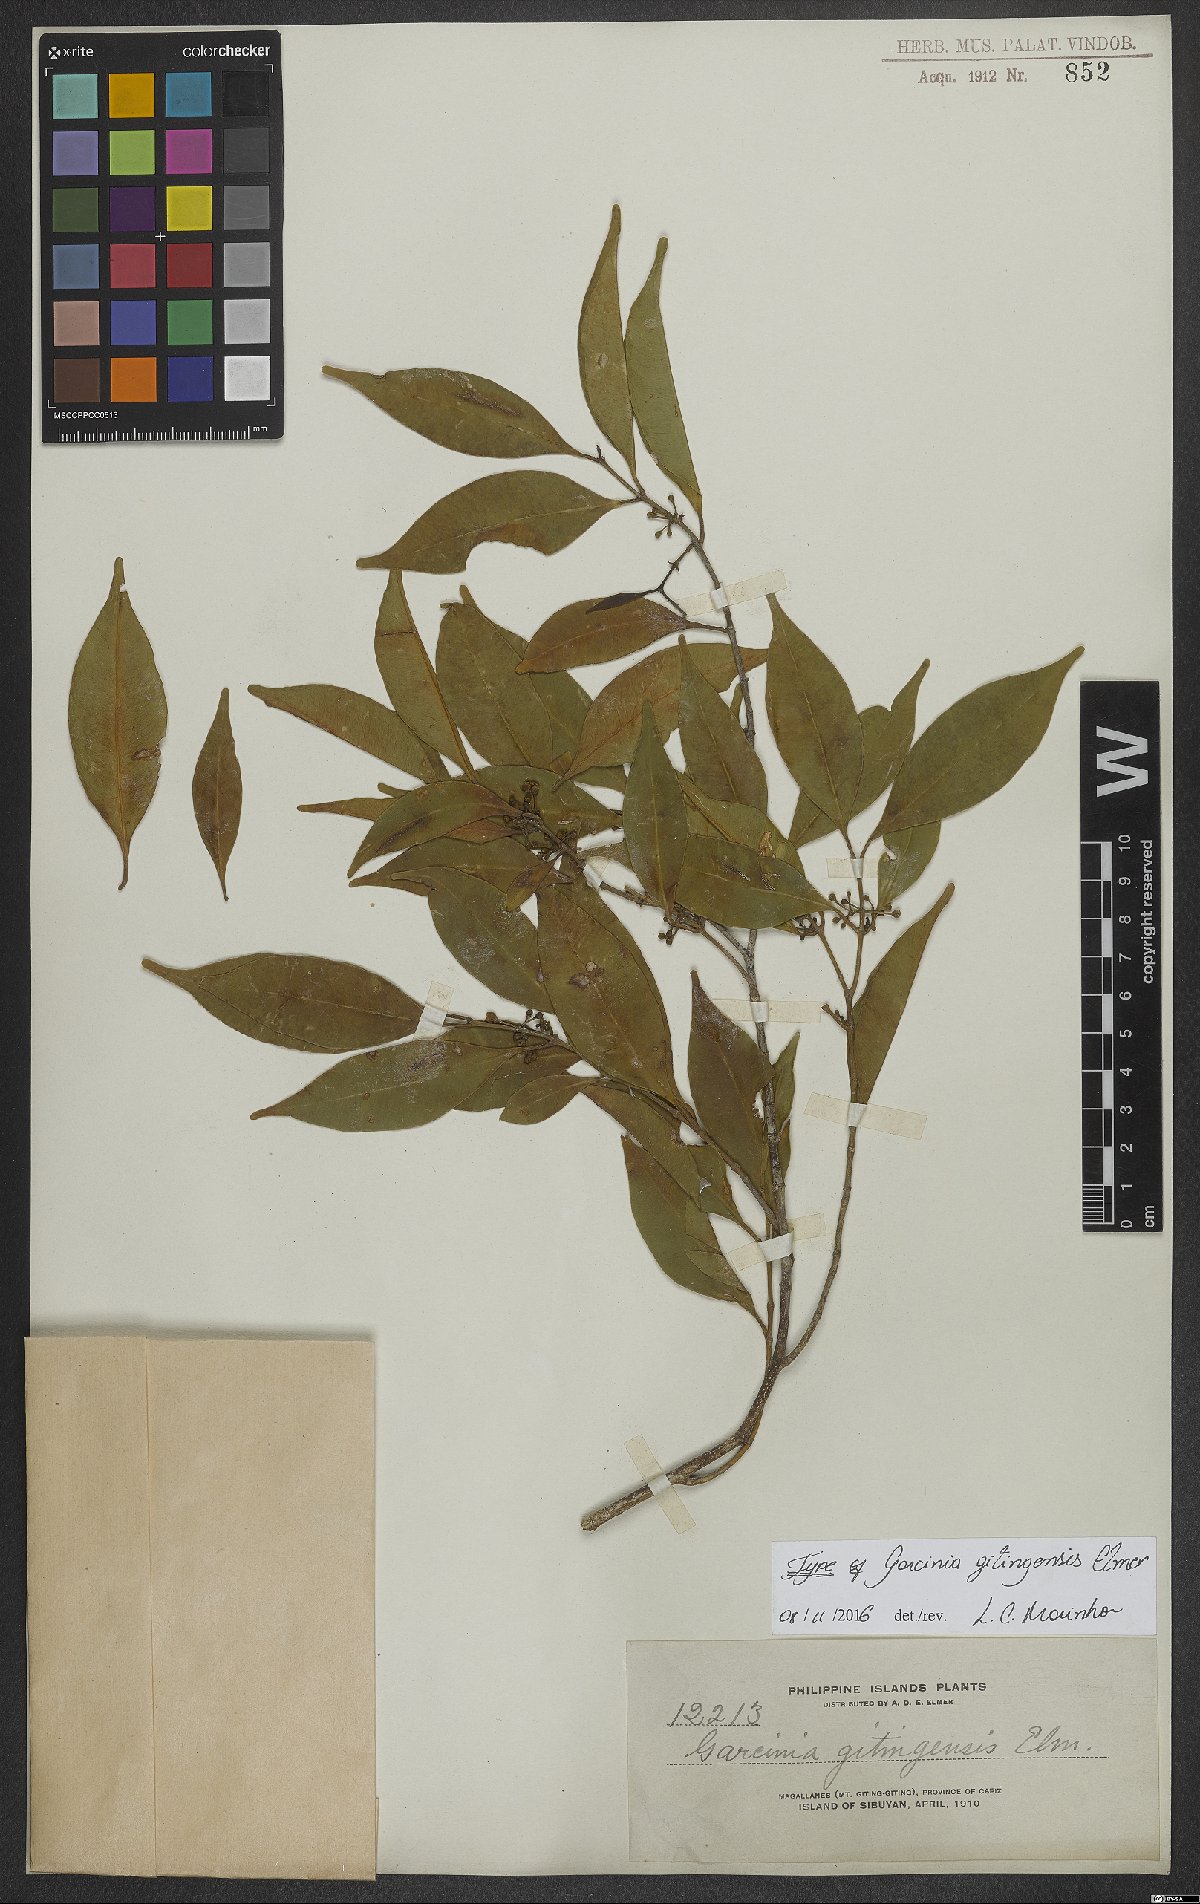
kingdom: Plantae
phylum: Tracheophyta
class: Magnoliopsida
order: Malpighiales
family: Clusiaceae
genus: Garcinia
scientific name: Garcinia brevirostris
